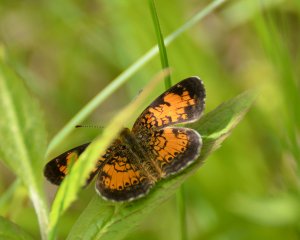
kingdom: Animalia
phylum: Arthropoda
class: Insecta
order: Lepidoptera
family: Nymphalidae
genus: Phyciodes
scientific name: Phyciodes tharos
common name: Northern Crescent
